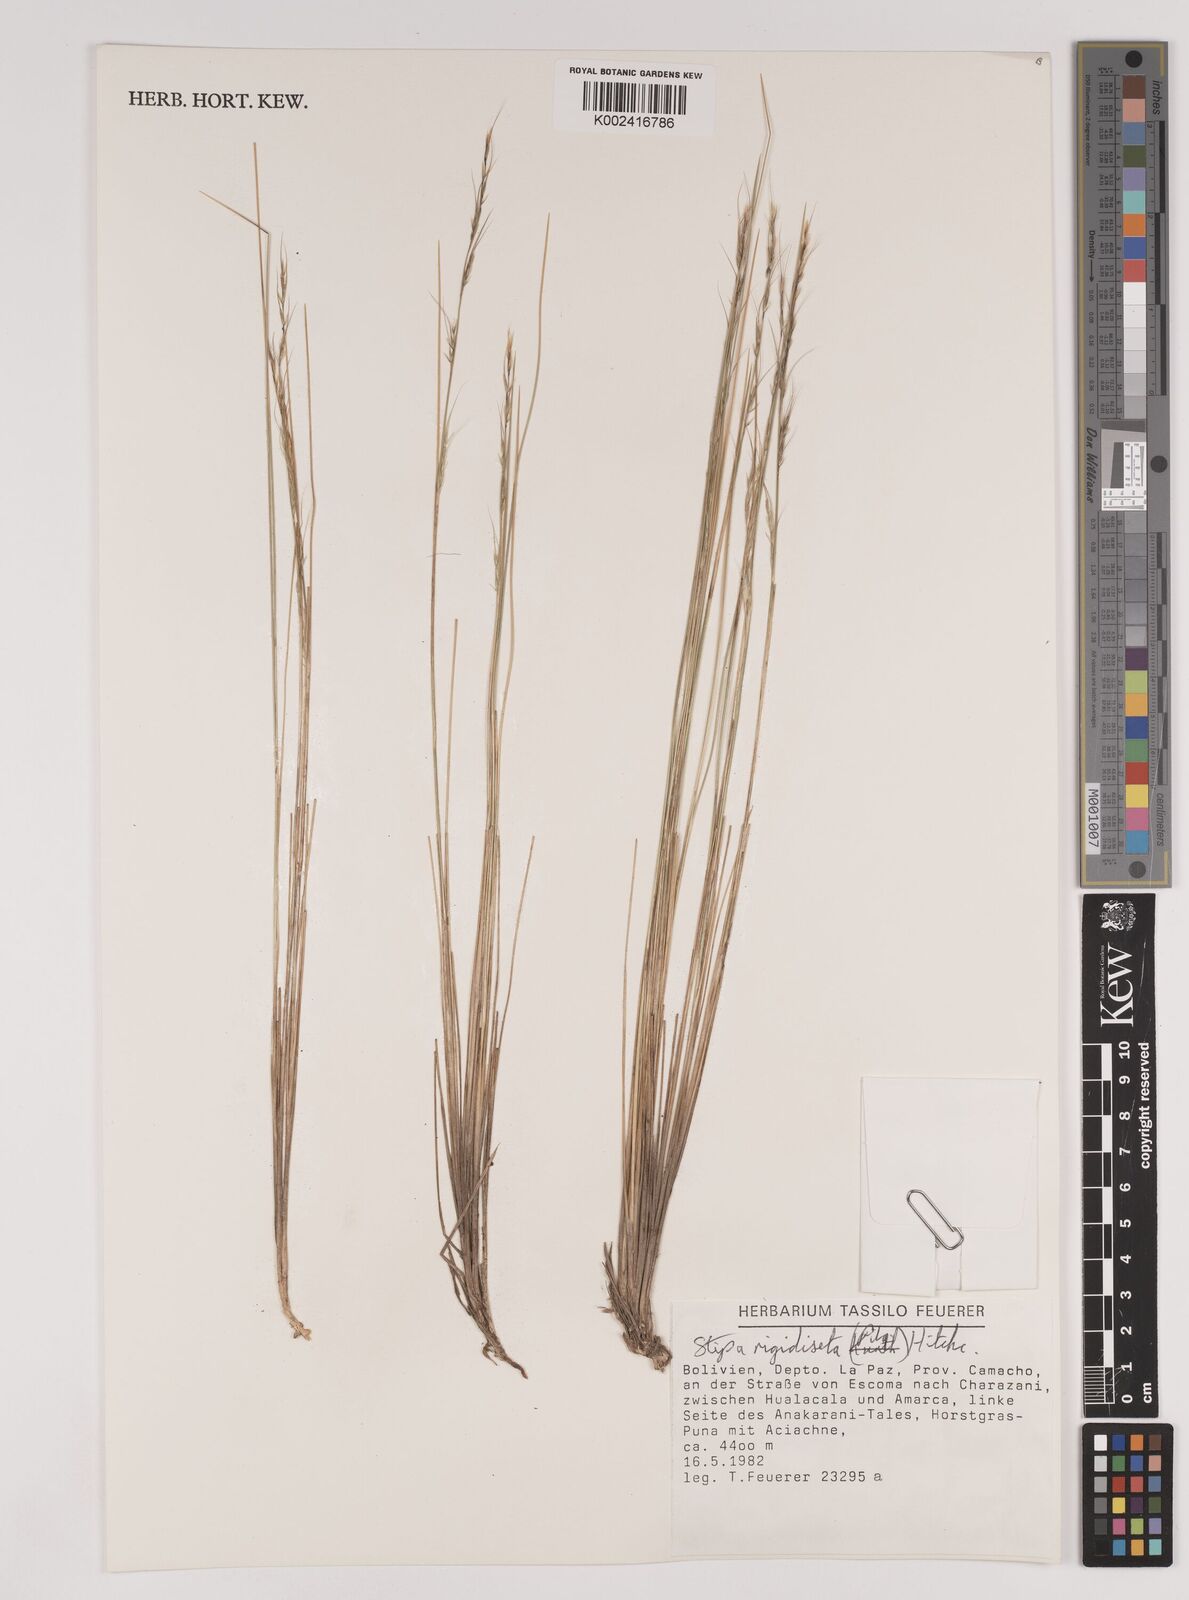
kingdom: Plantae
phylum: Tracheophyta
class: Liliopsida
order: Poales
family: Poaceae
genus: Stipa
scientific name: Stipa rigidiseta
